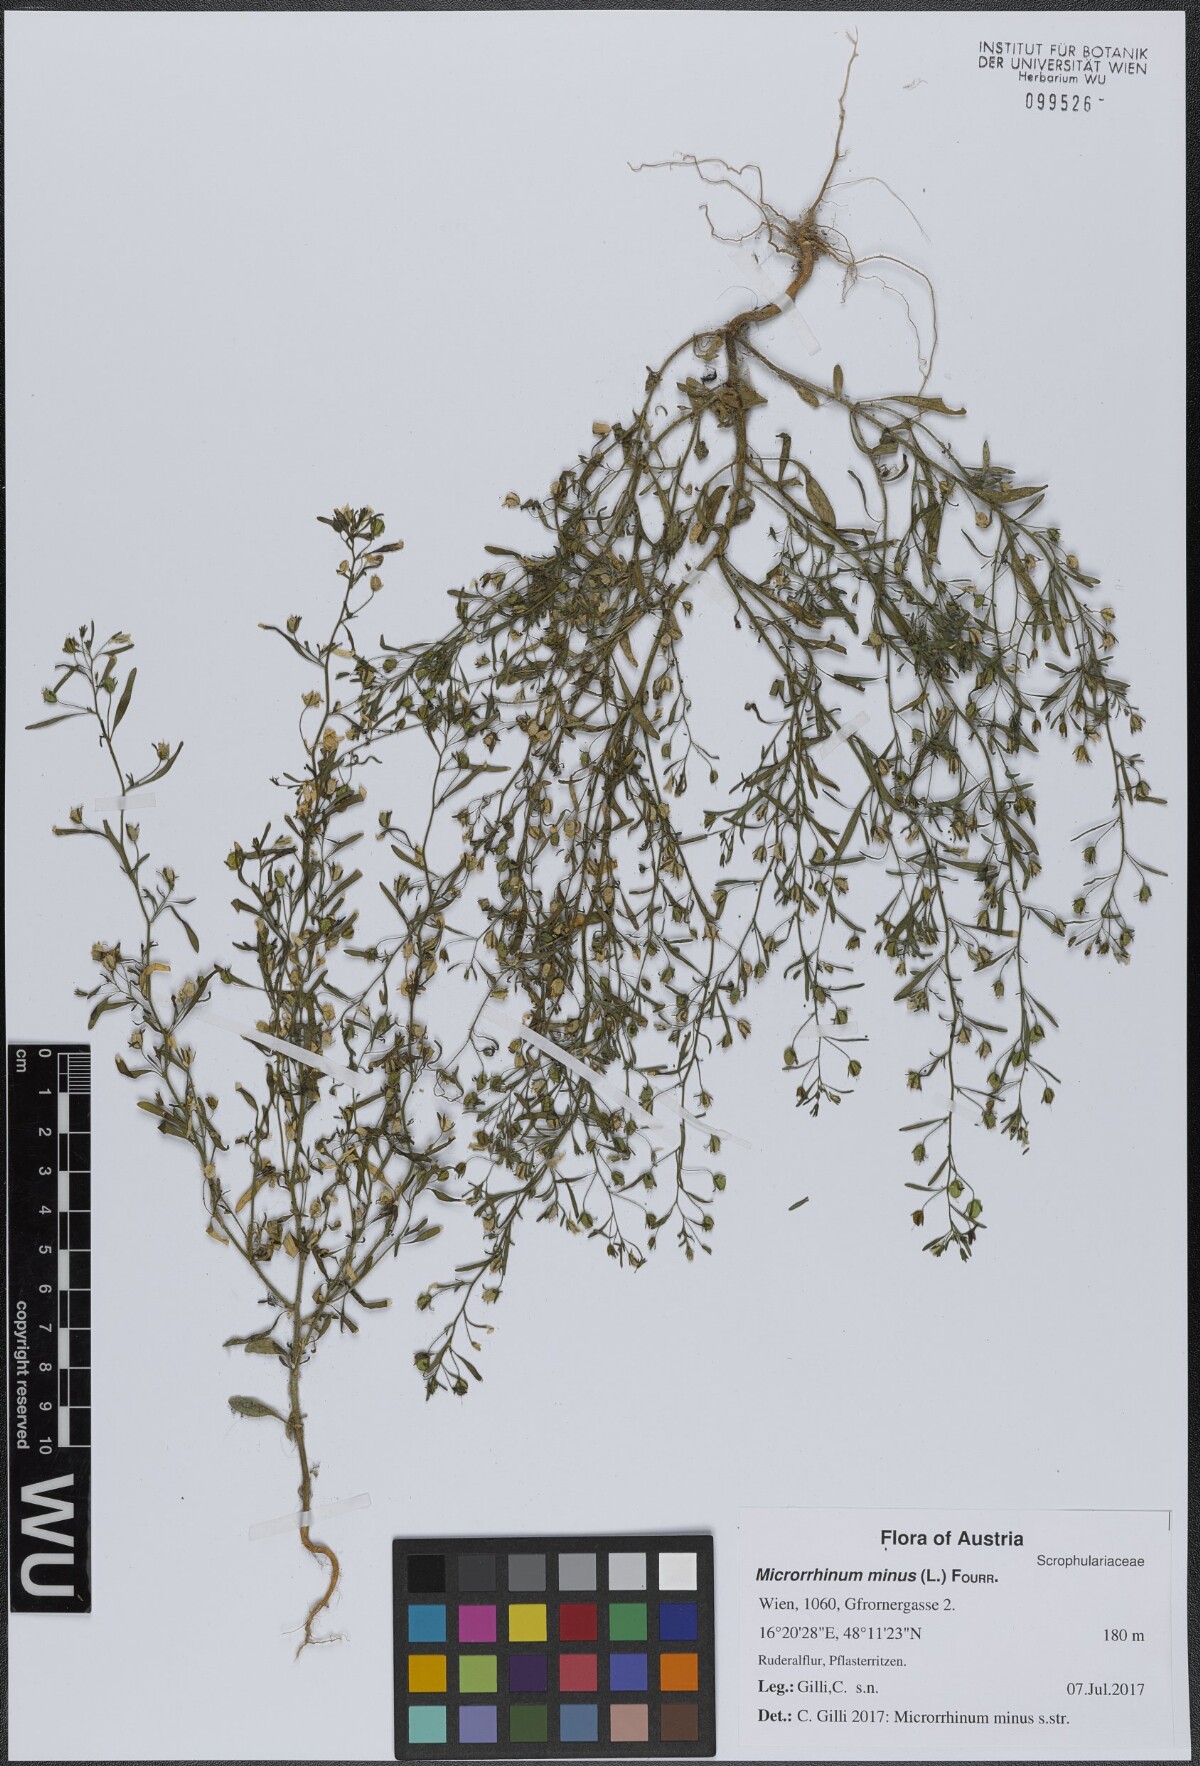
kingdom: Plantae
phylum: Tracheophyta
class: Magnoliopsida
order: Lamiales
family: Plantaginaceae
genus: Chaenorhinum
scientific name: Chaenorhinum minus
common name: Dwarf snapdragon
